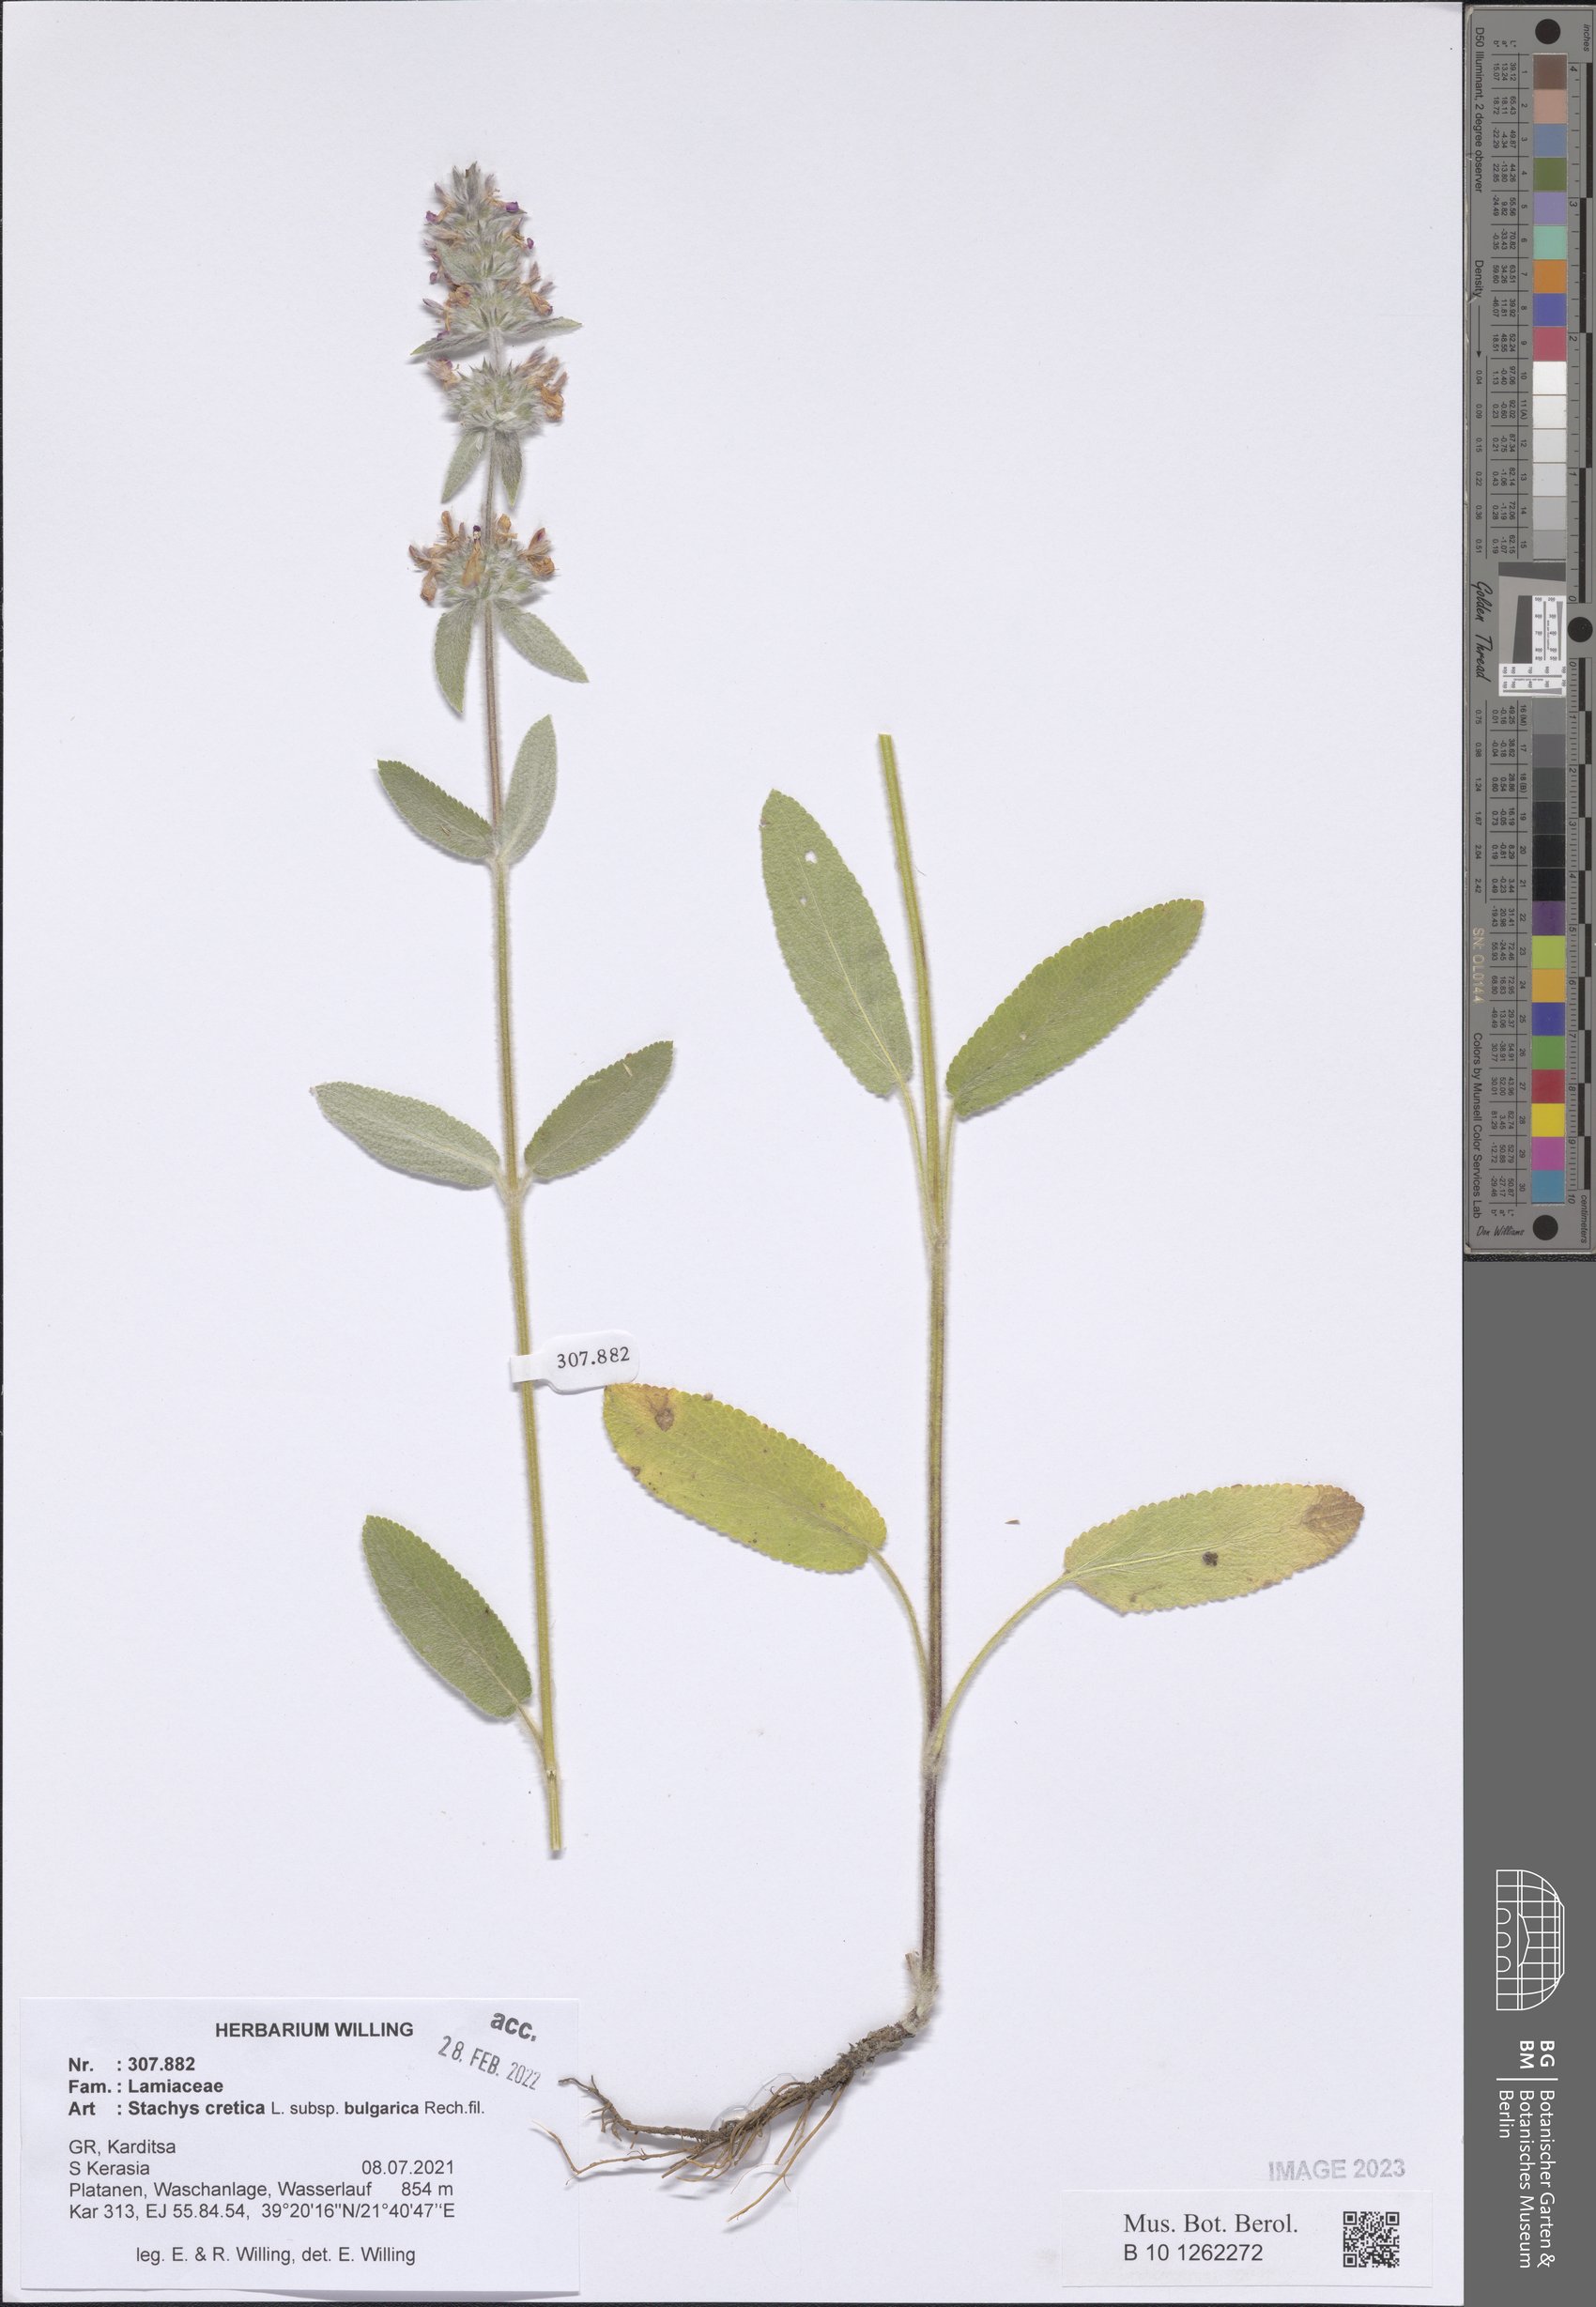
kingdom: Plantae
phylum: Tracheophyta
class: Magnoliopsida
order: Lamiales
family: Lamiaceae
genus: Stachys
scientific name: Stachys cretica
